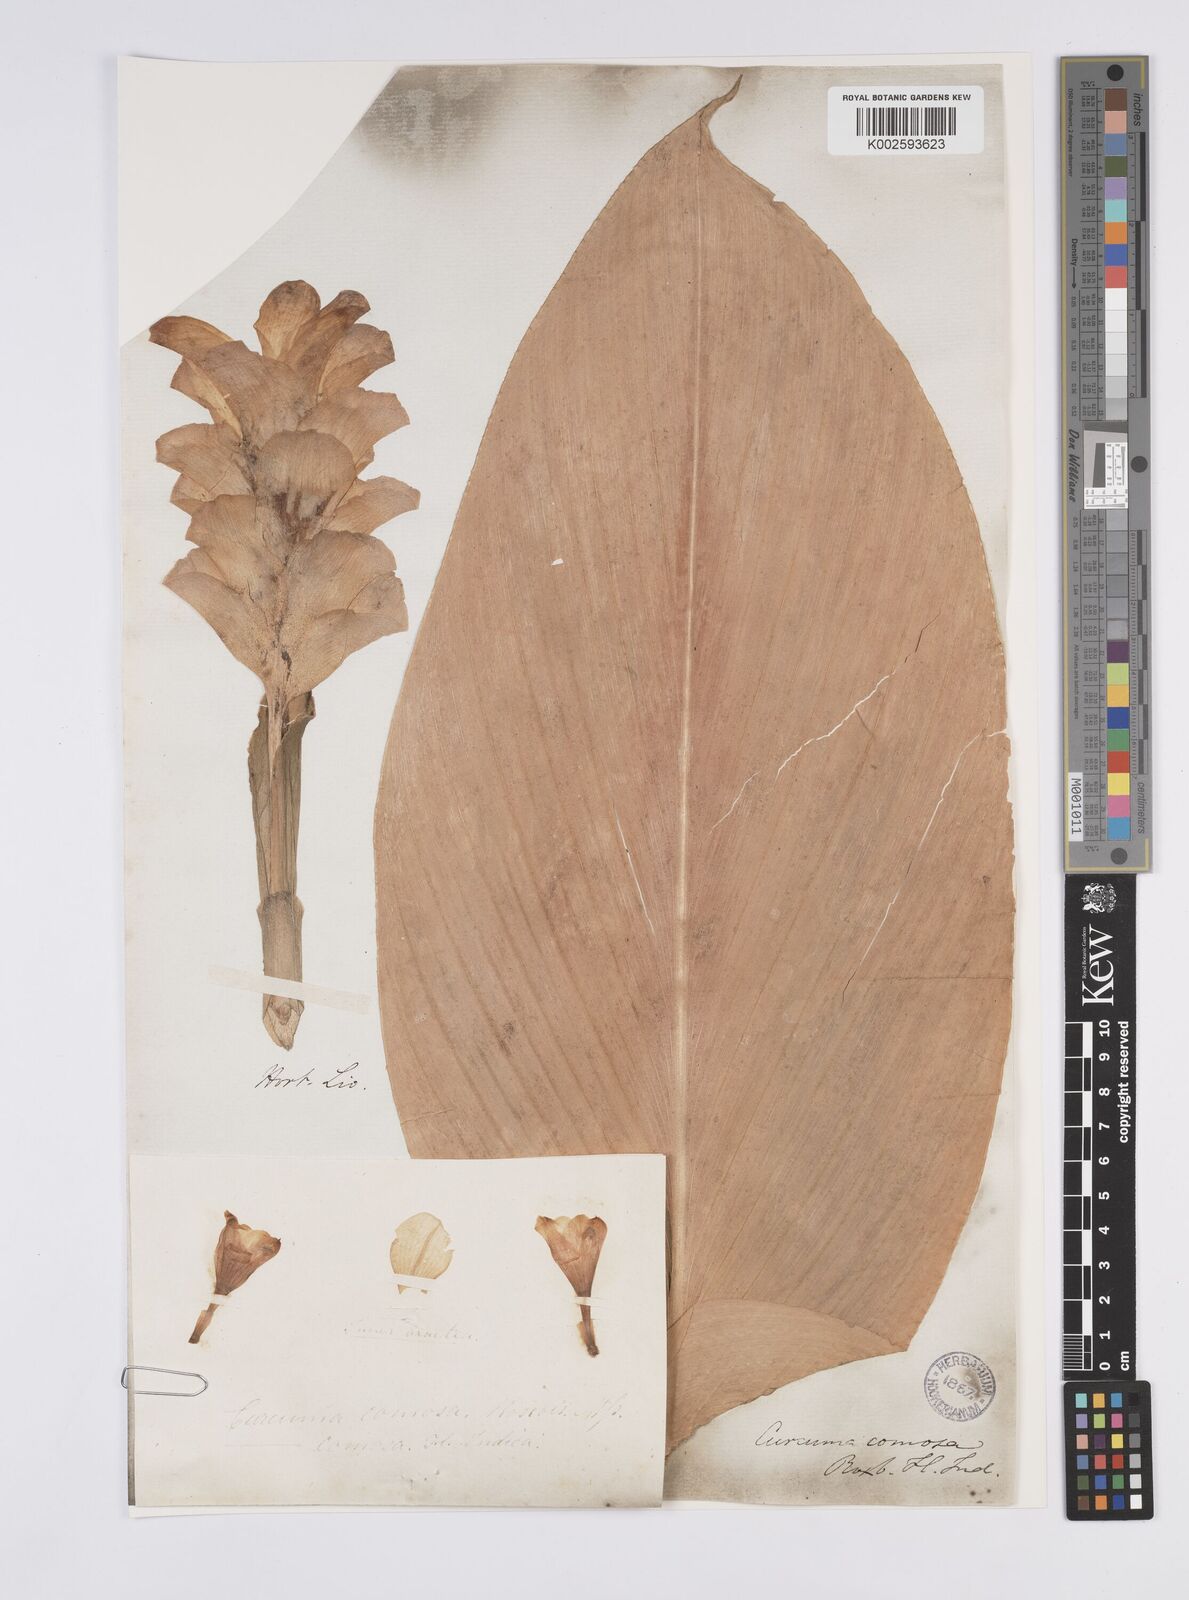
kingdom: Plantae
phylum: Tracheophyta
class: Liliopsida
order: Zingiberales
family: Zingiberaceae
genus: Curcuma
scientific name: Curcuma comosa
